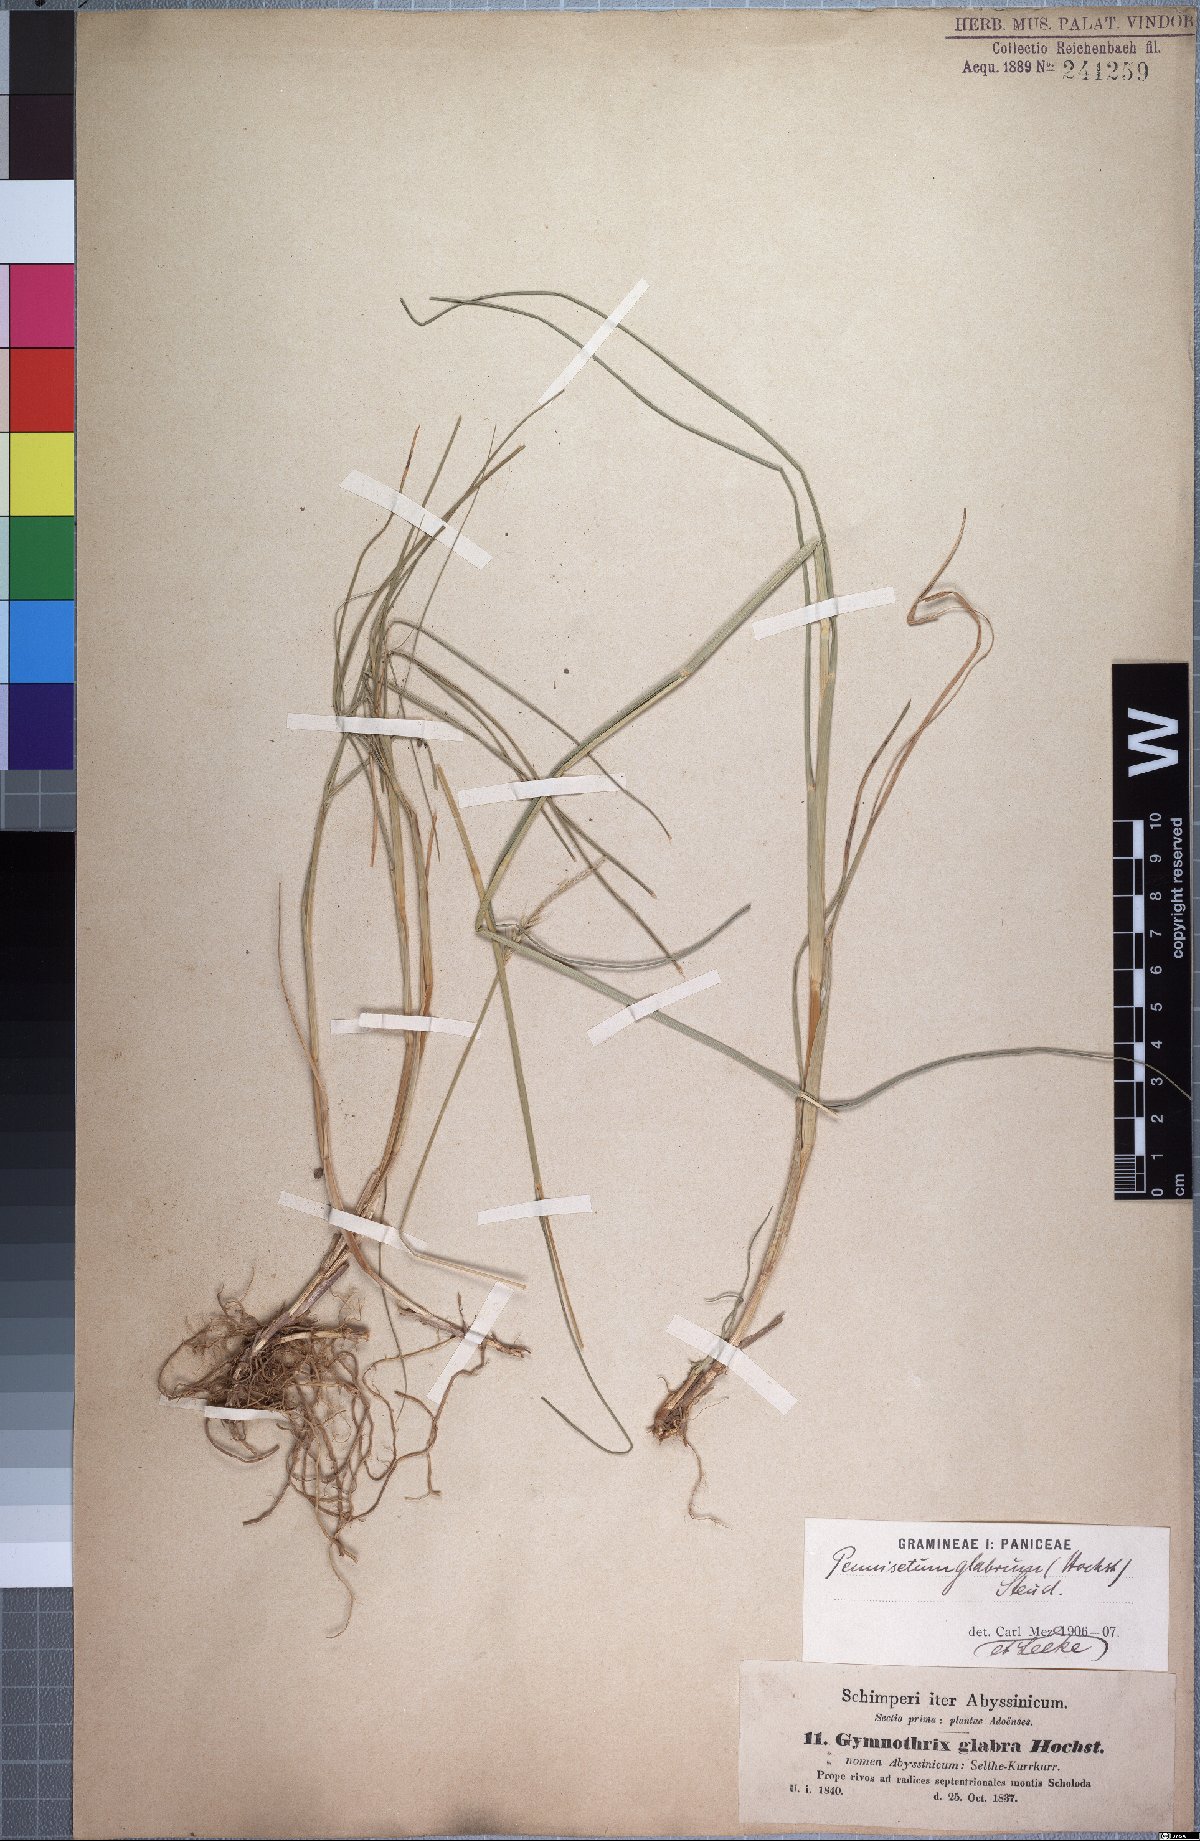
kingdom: Plantae
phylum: Tracheophyta
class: Liliopsida
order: Poales
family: Poaceae
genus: Cenchrus
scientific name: Cenchrus geniculatus
